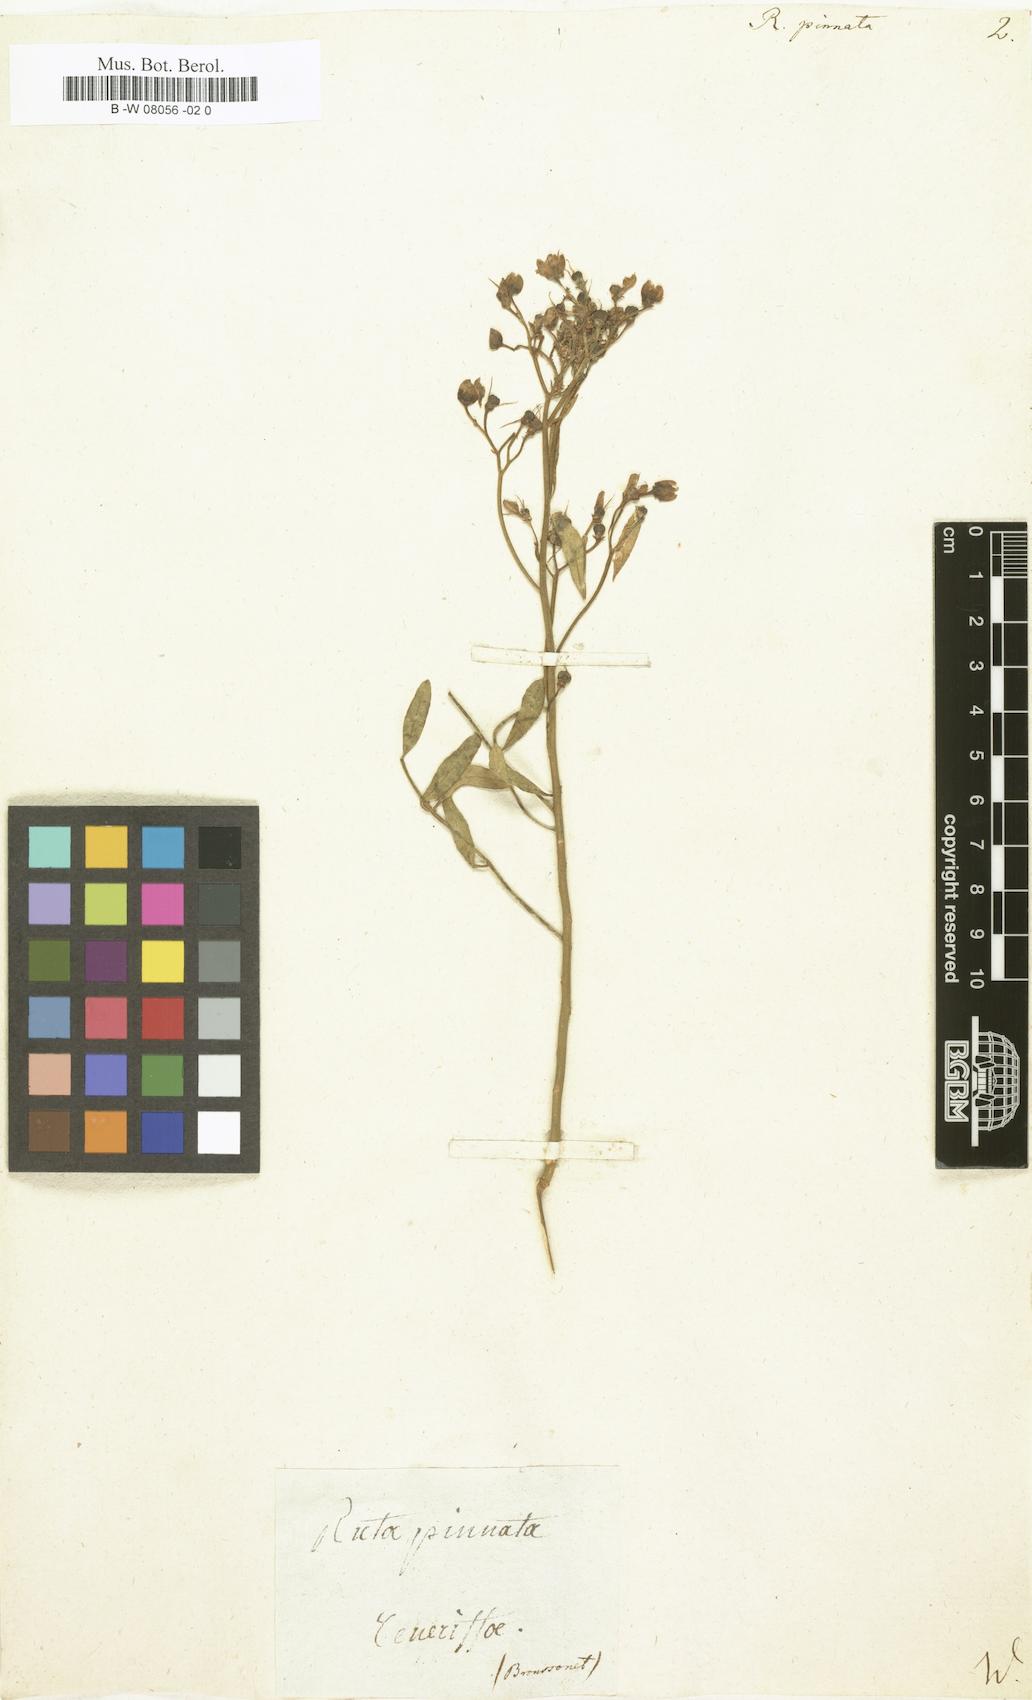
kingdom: Plantae
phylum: Tracheophyta
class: Magnoliopsida
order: Sapindales
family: Rutaceae
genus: Ruta
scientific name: Ruta pinnata
